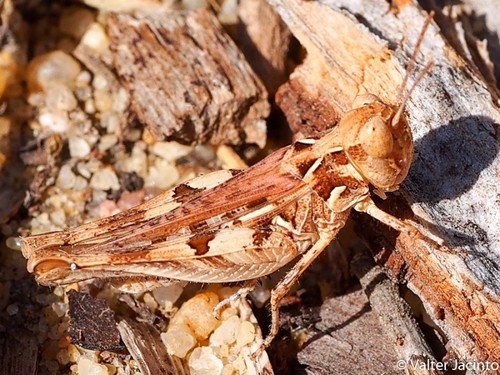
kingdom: Animalia
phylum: Arthropoda
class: Insecta
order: Orthoptera
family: Acrididae
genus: Dociostaurus
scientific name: Dociostaurus jagoi
